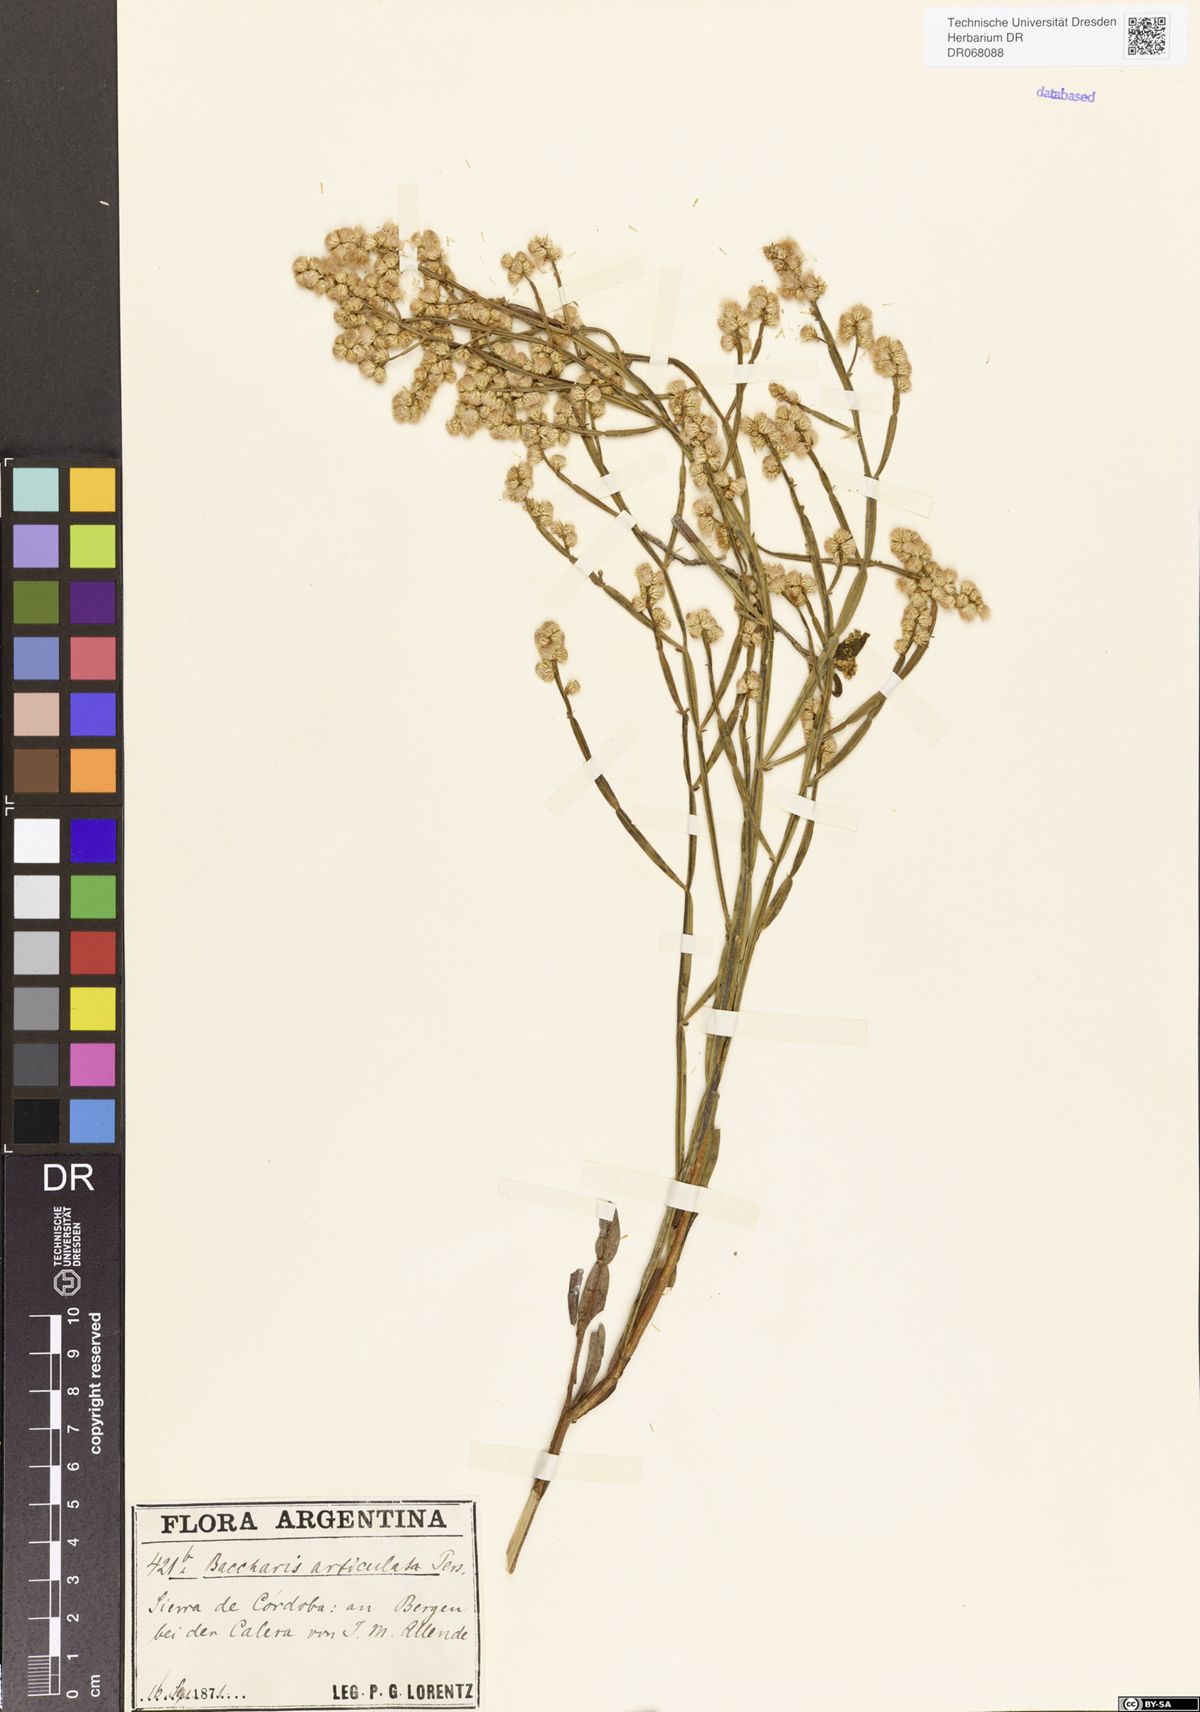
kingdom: Plantae
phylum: Tracheophyta
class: Magnoliopsida
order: Asterales
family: Asteraceae
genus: Baccharis
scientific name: Baccharis articulata
